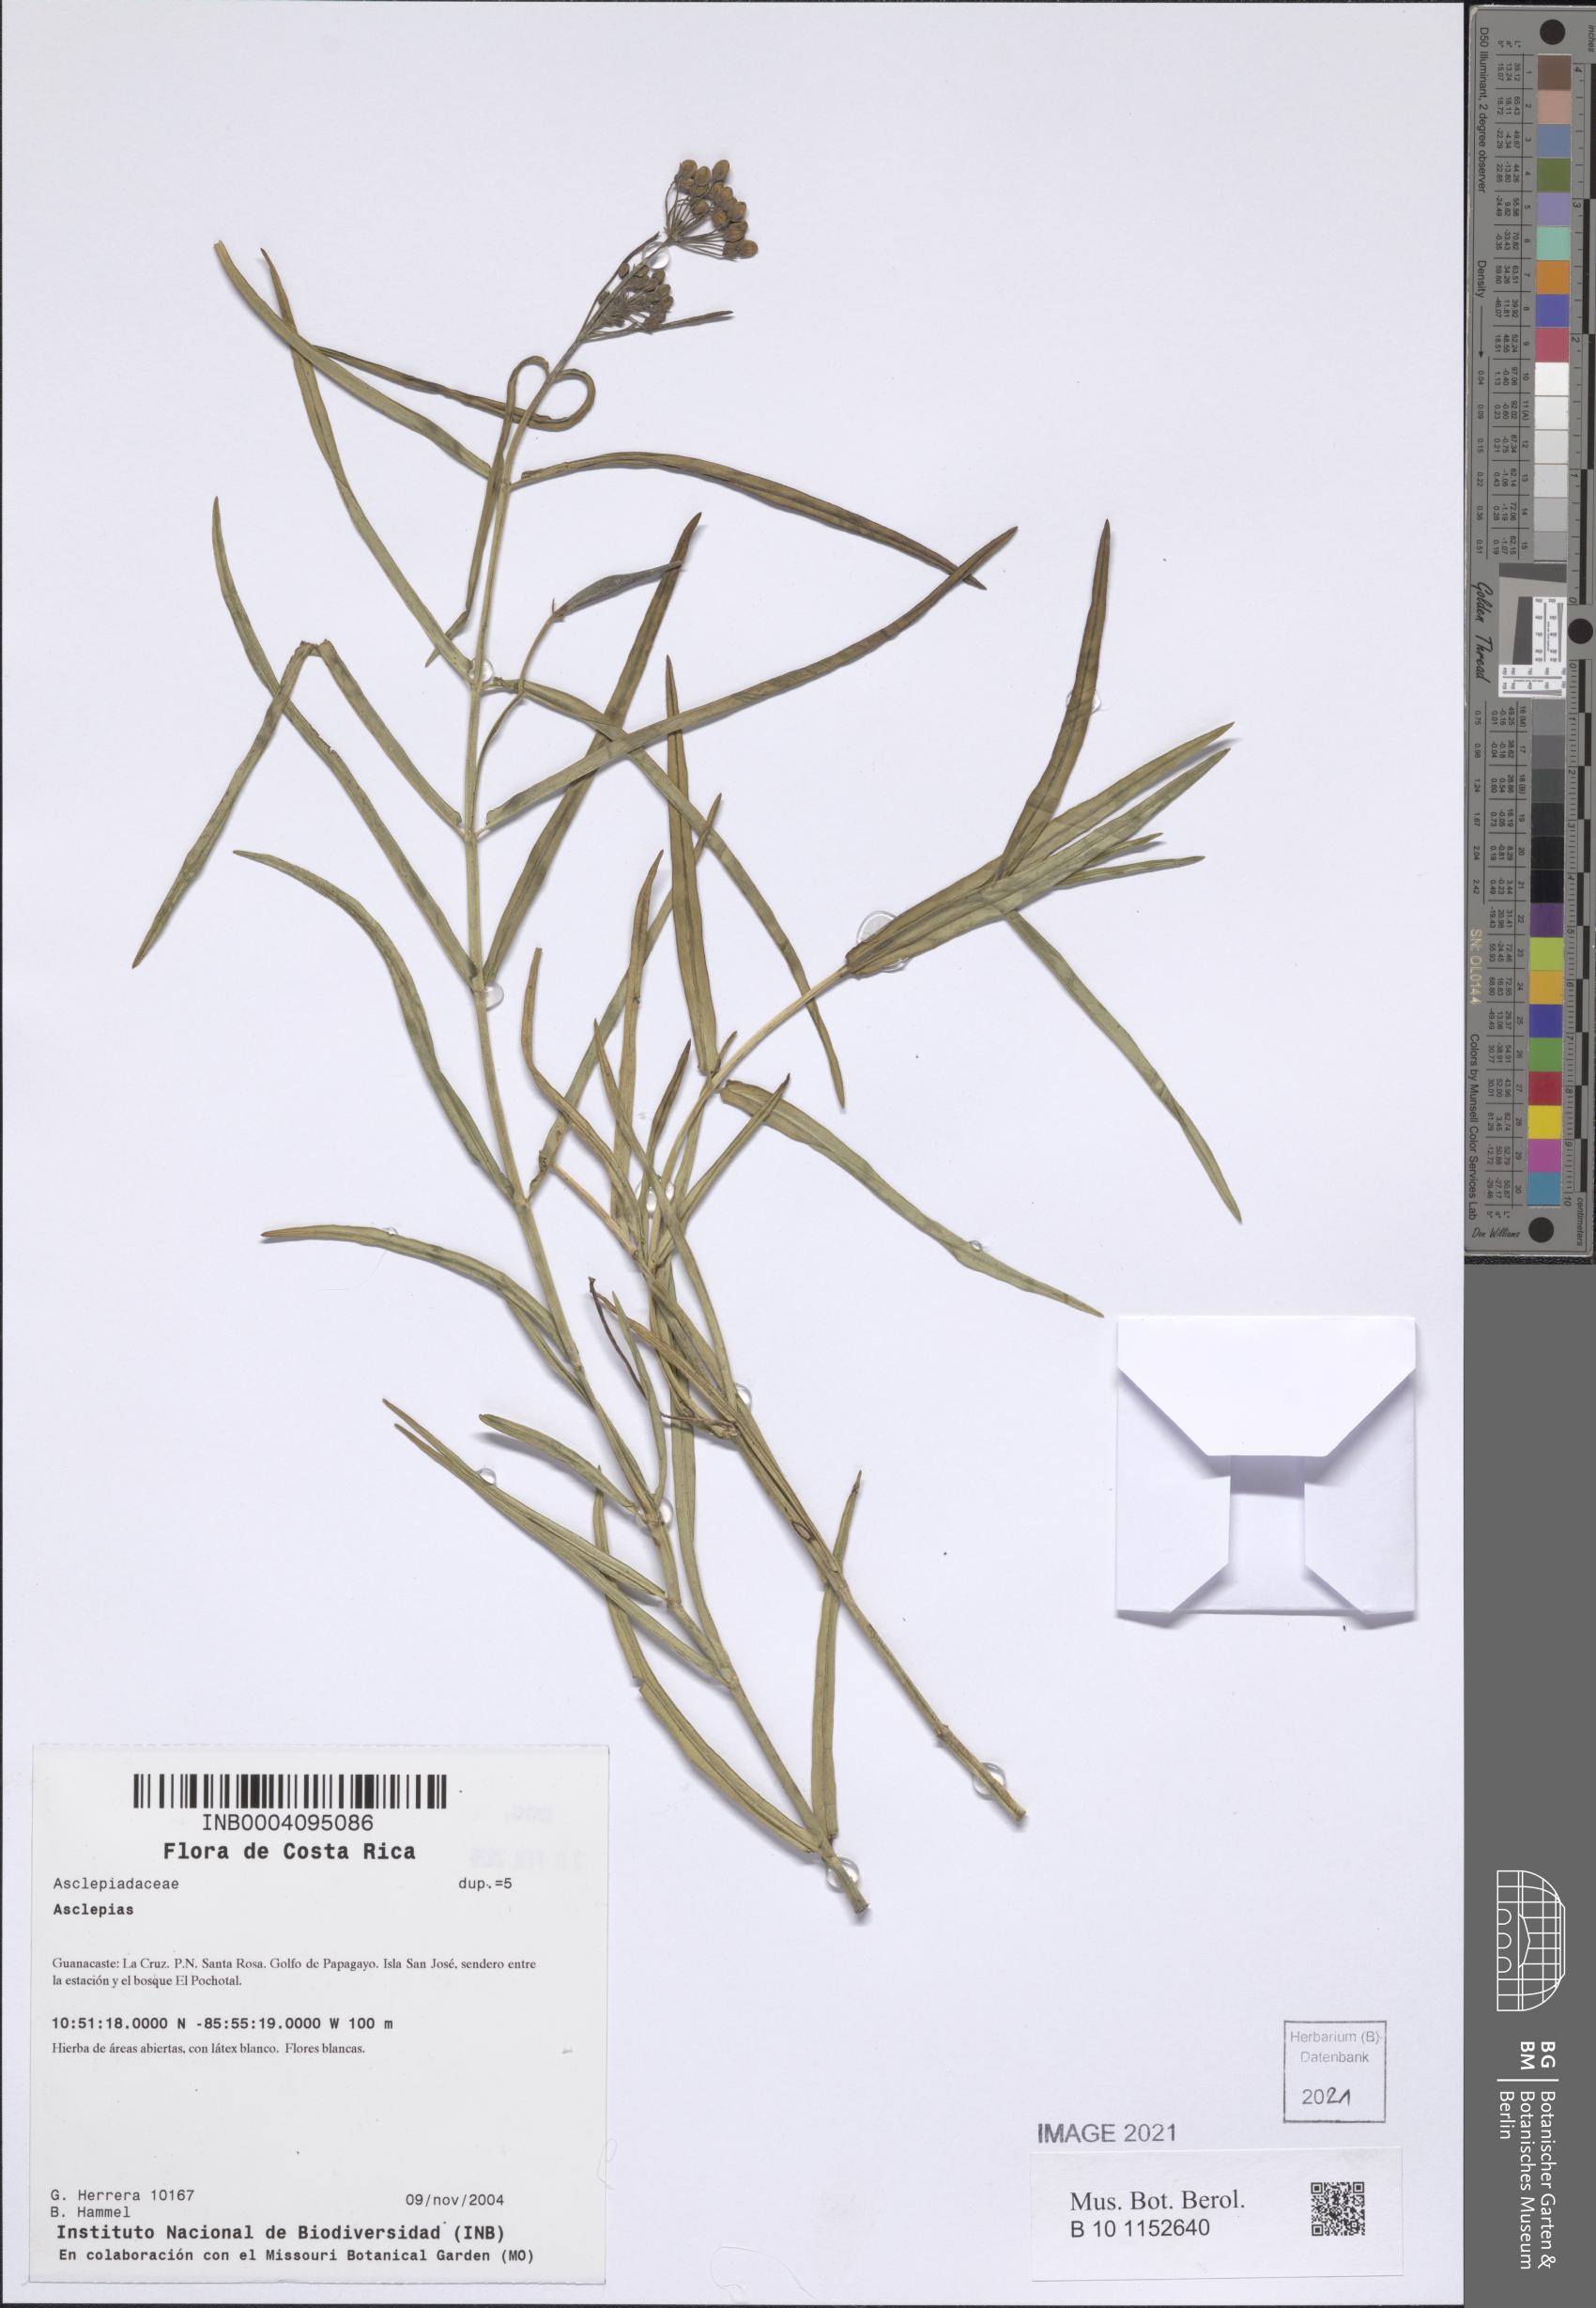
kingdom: Plantae
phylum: Tracheophyta
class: Magnoliopsida
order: Gentianales
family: Apocynaceae
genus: Asclepias
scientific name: Asclepias woodsoniana
